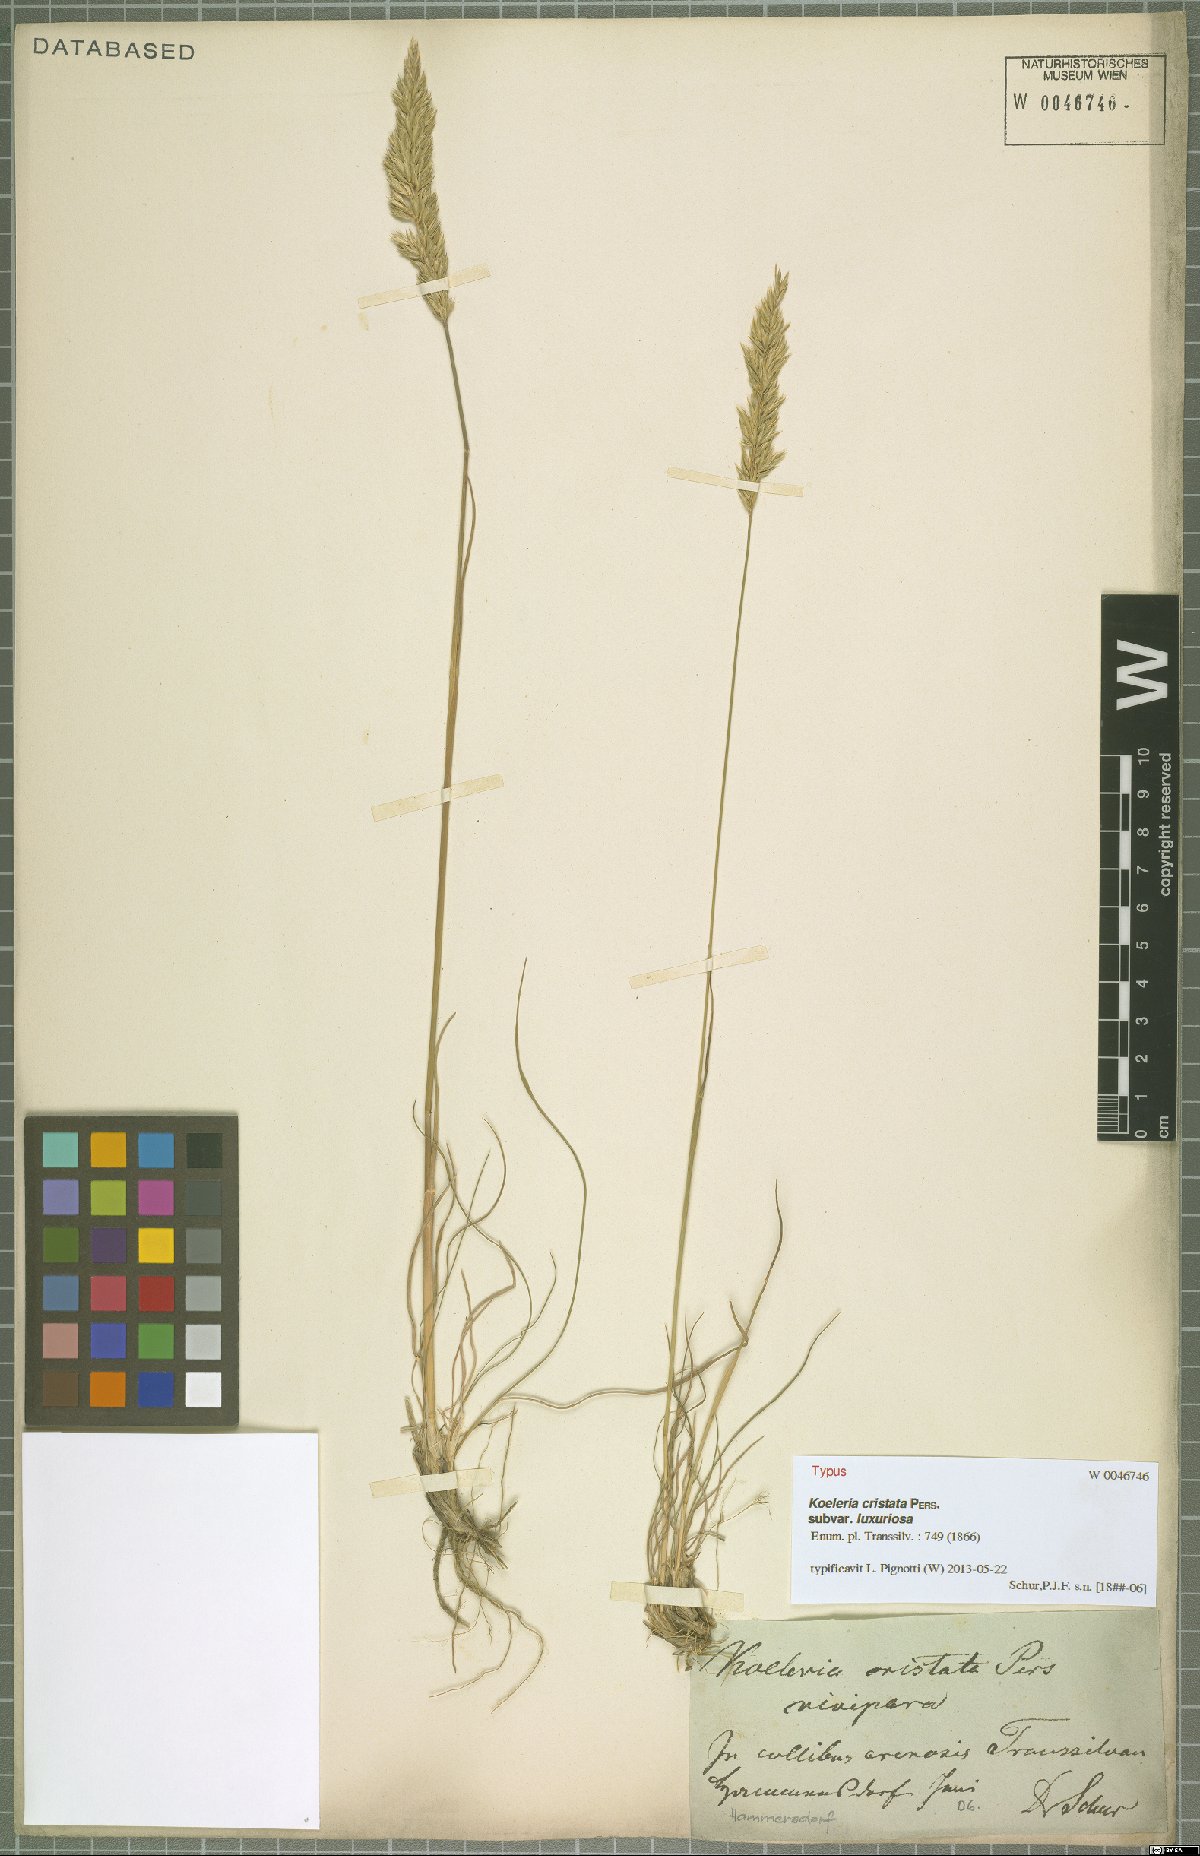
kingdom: Plantae
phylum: Tracheophyta
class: Liliopsida
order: Poales
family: Poaceae
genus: Koeleria
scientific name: Koeleria pyramidata
